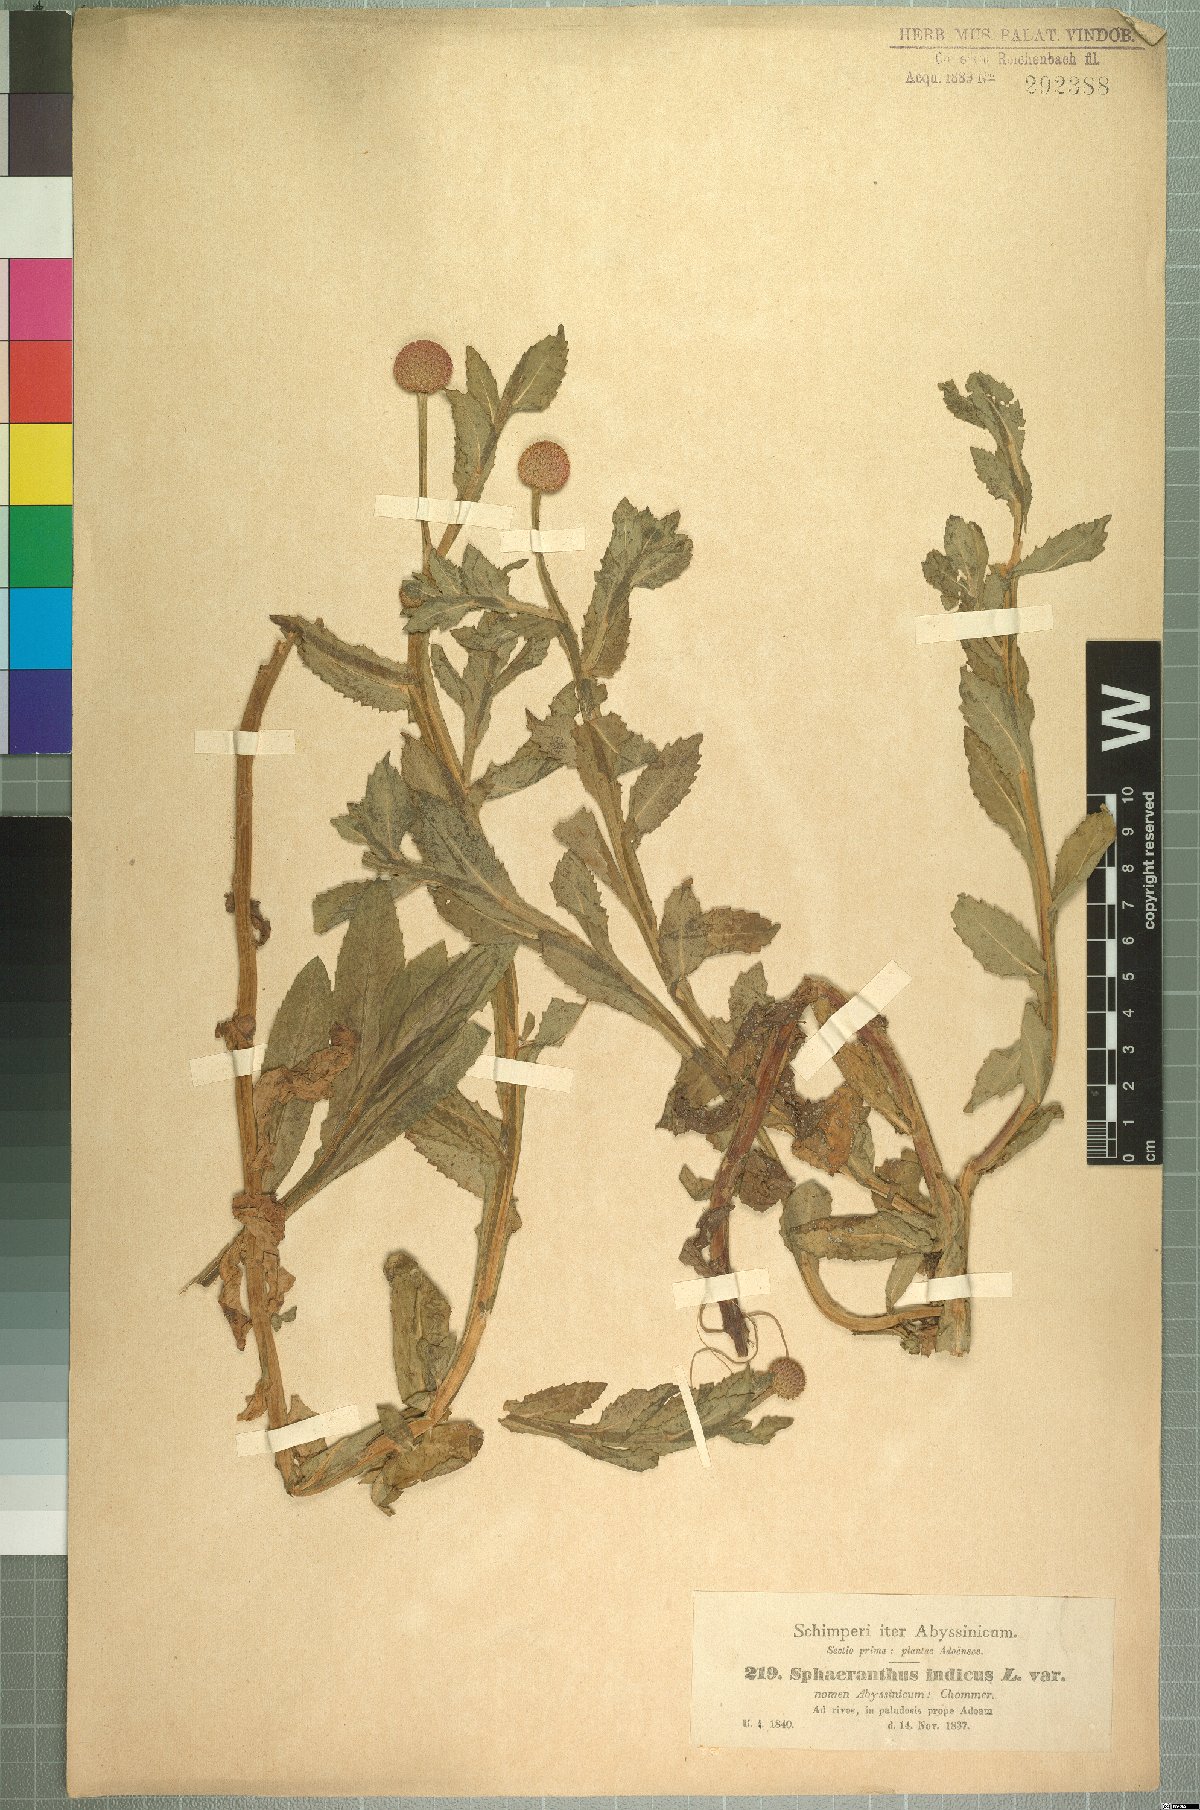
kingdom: Plantae
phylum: Tracheophyta
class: Magnoliopsida
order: Asterales
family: Asteraceae
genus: Sphaeranthus
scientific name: Sphaeranthus suaveolens
